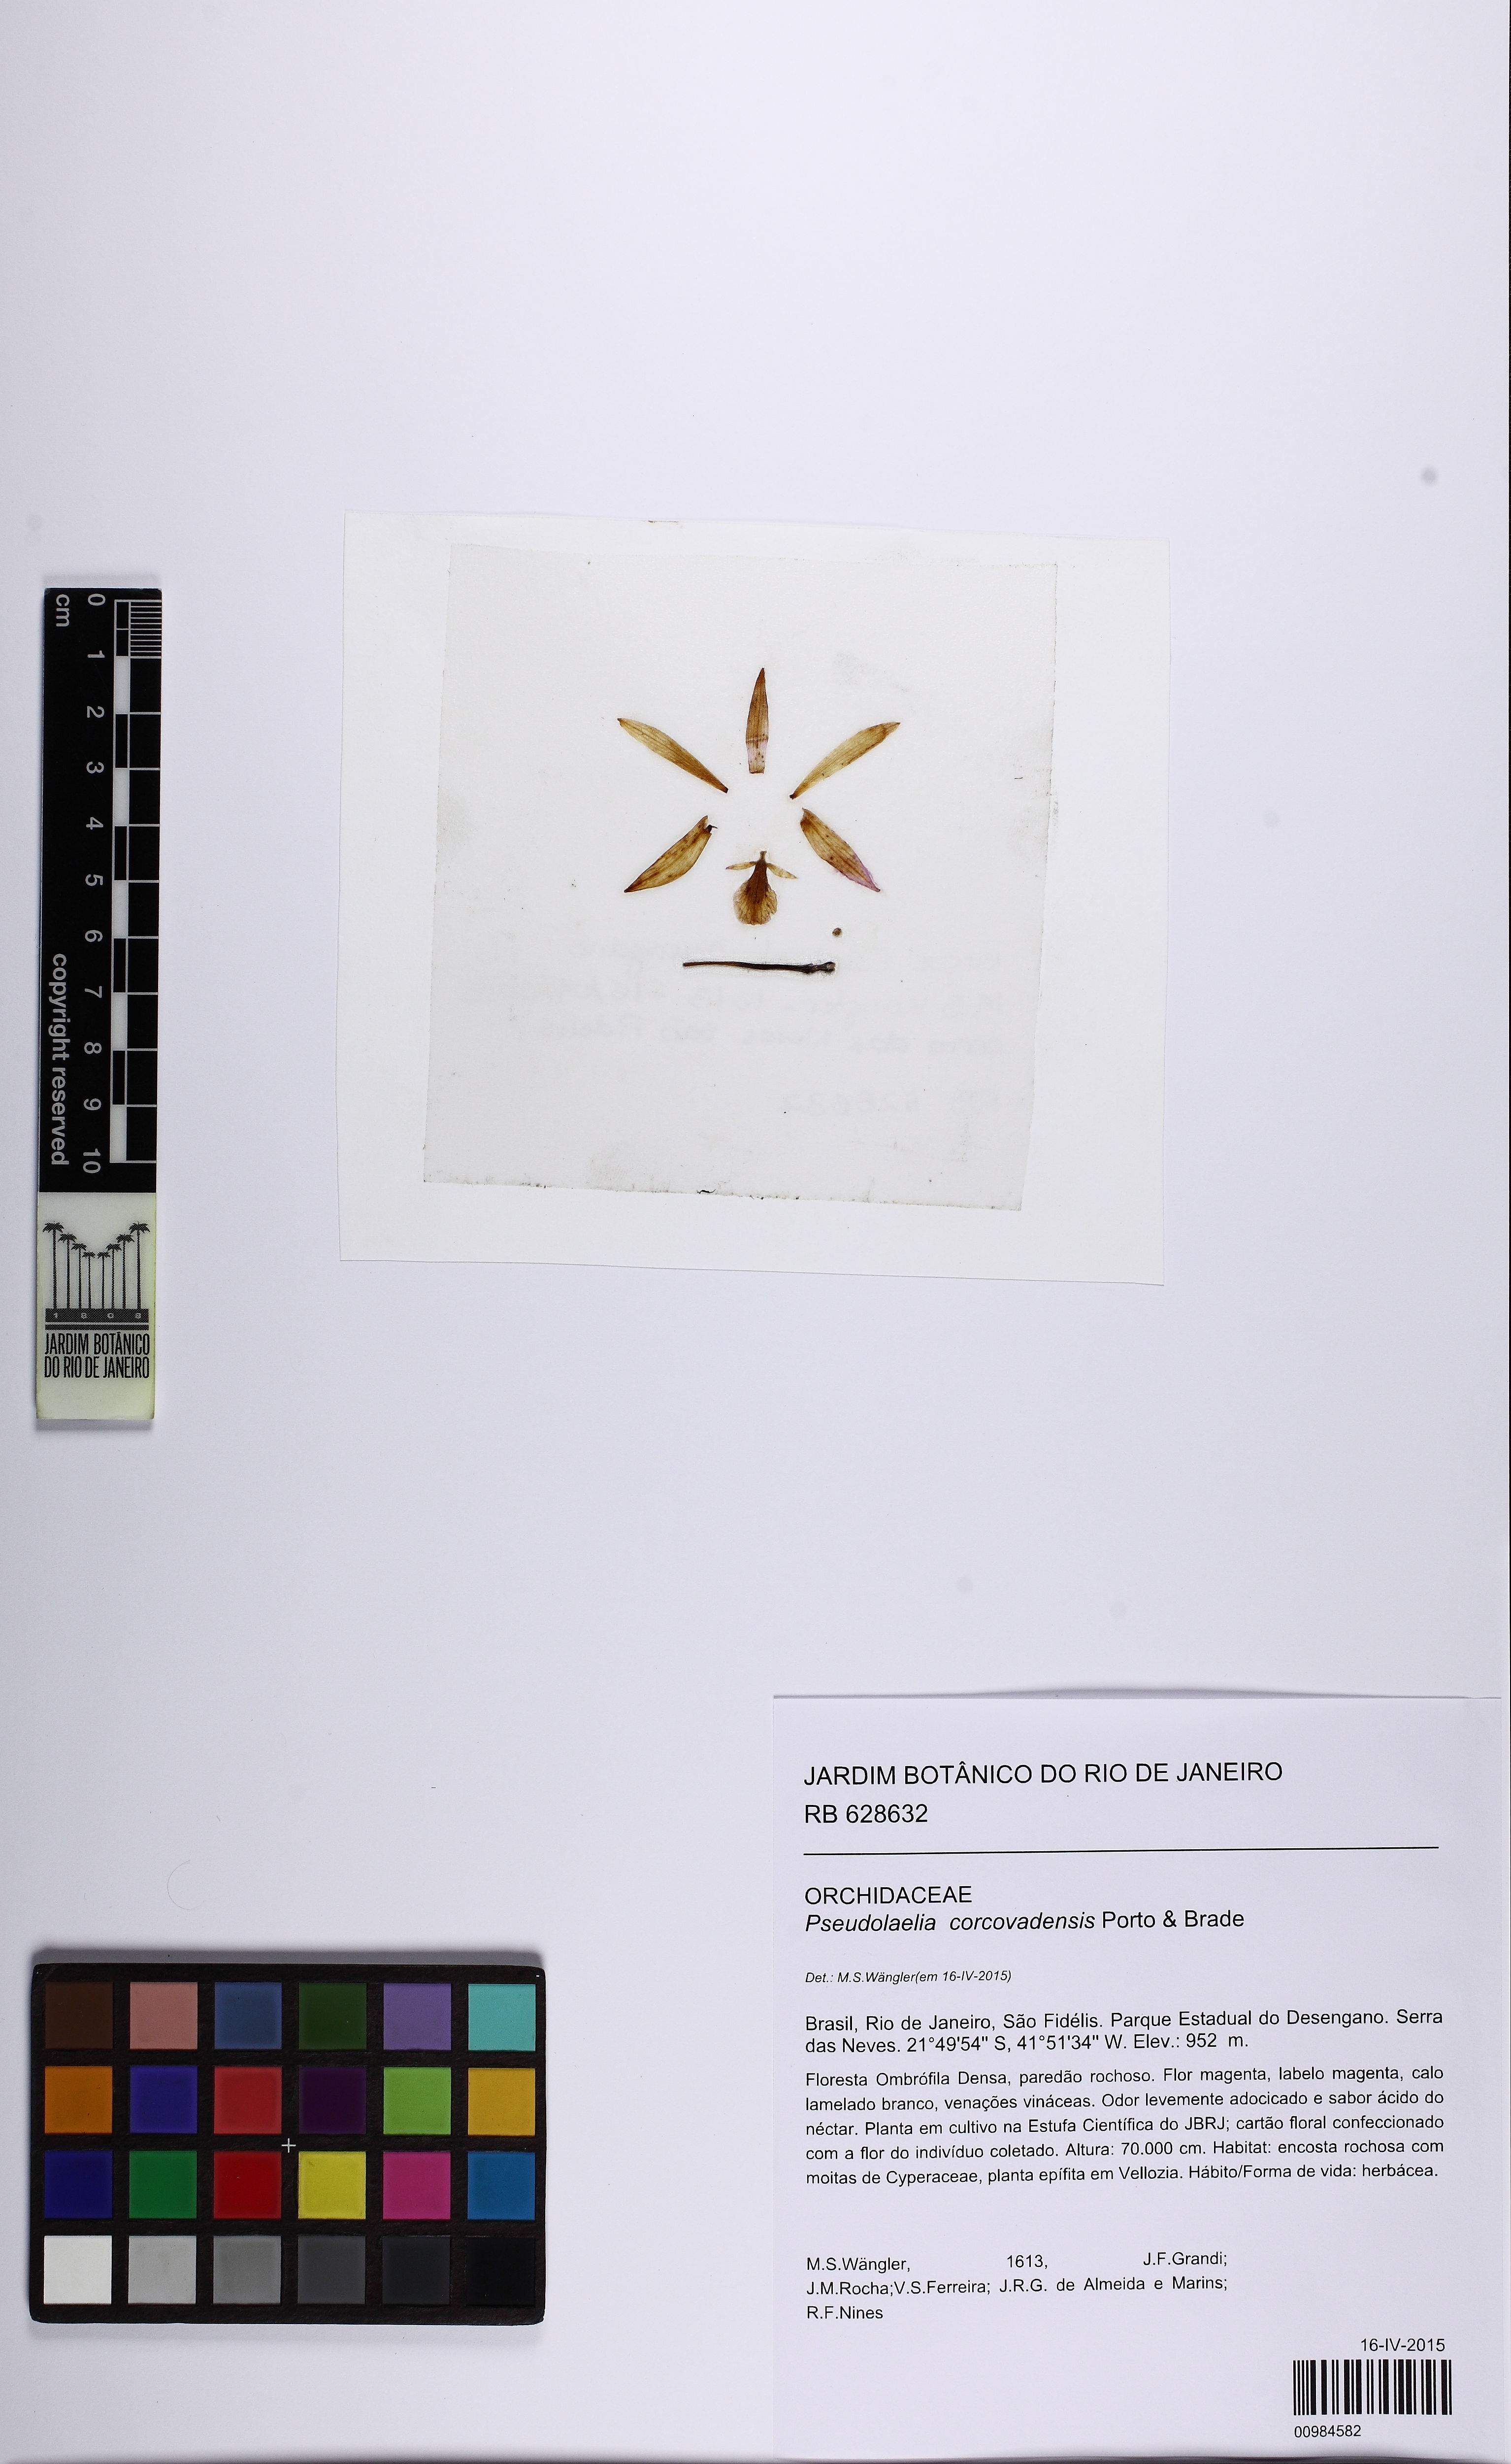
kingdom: Plantae
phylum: Tracheophyta
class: Liliopsida
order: Asparagales
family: Orchidaceae
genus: Pseudolaelia
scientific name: Pseudolaelia vellozicola
